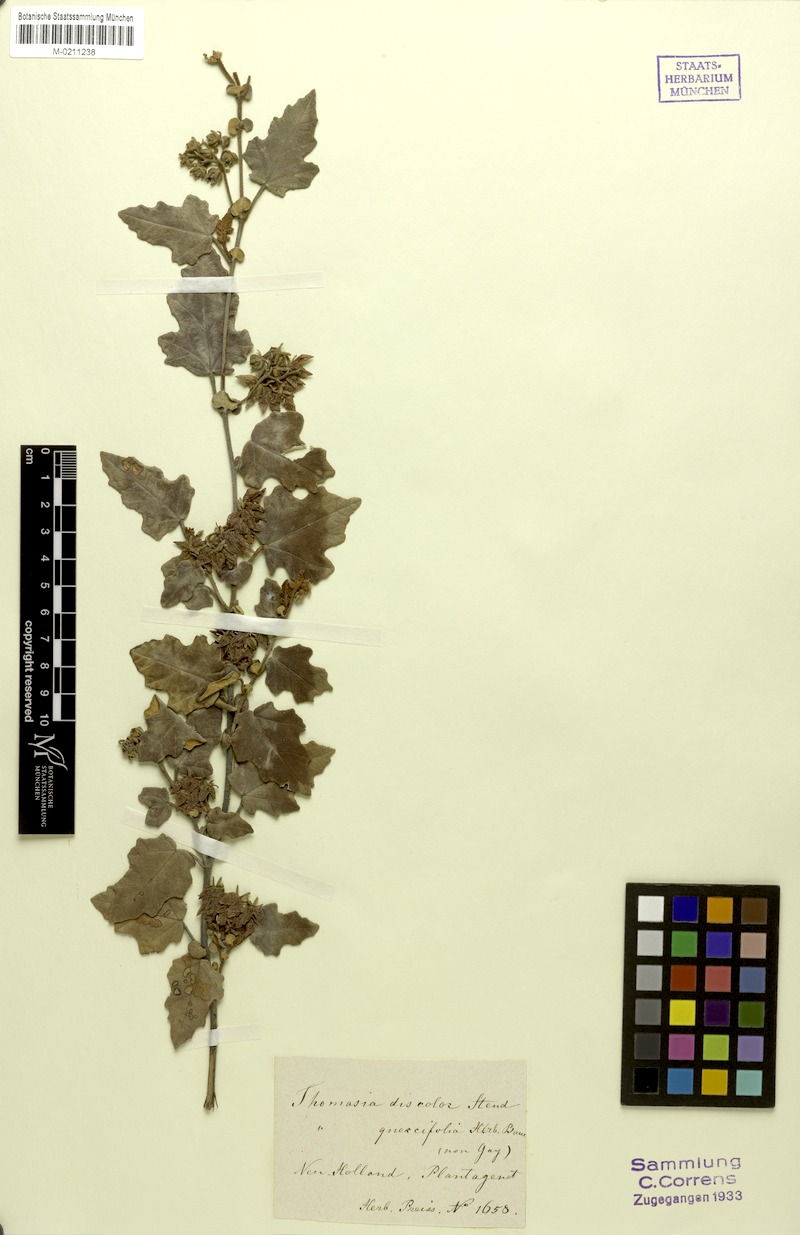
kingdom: Plantae
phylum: Tracheophyta
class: Magnoliopsida
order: Malvales
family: Malvaceae
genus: Thomasia
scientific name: Thomasia discolor
